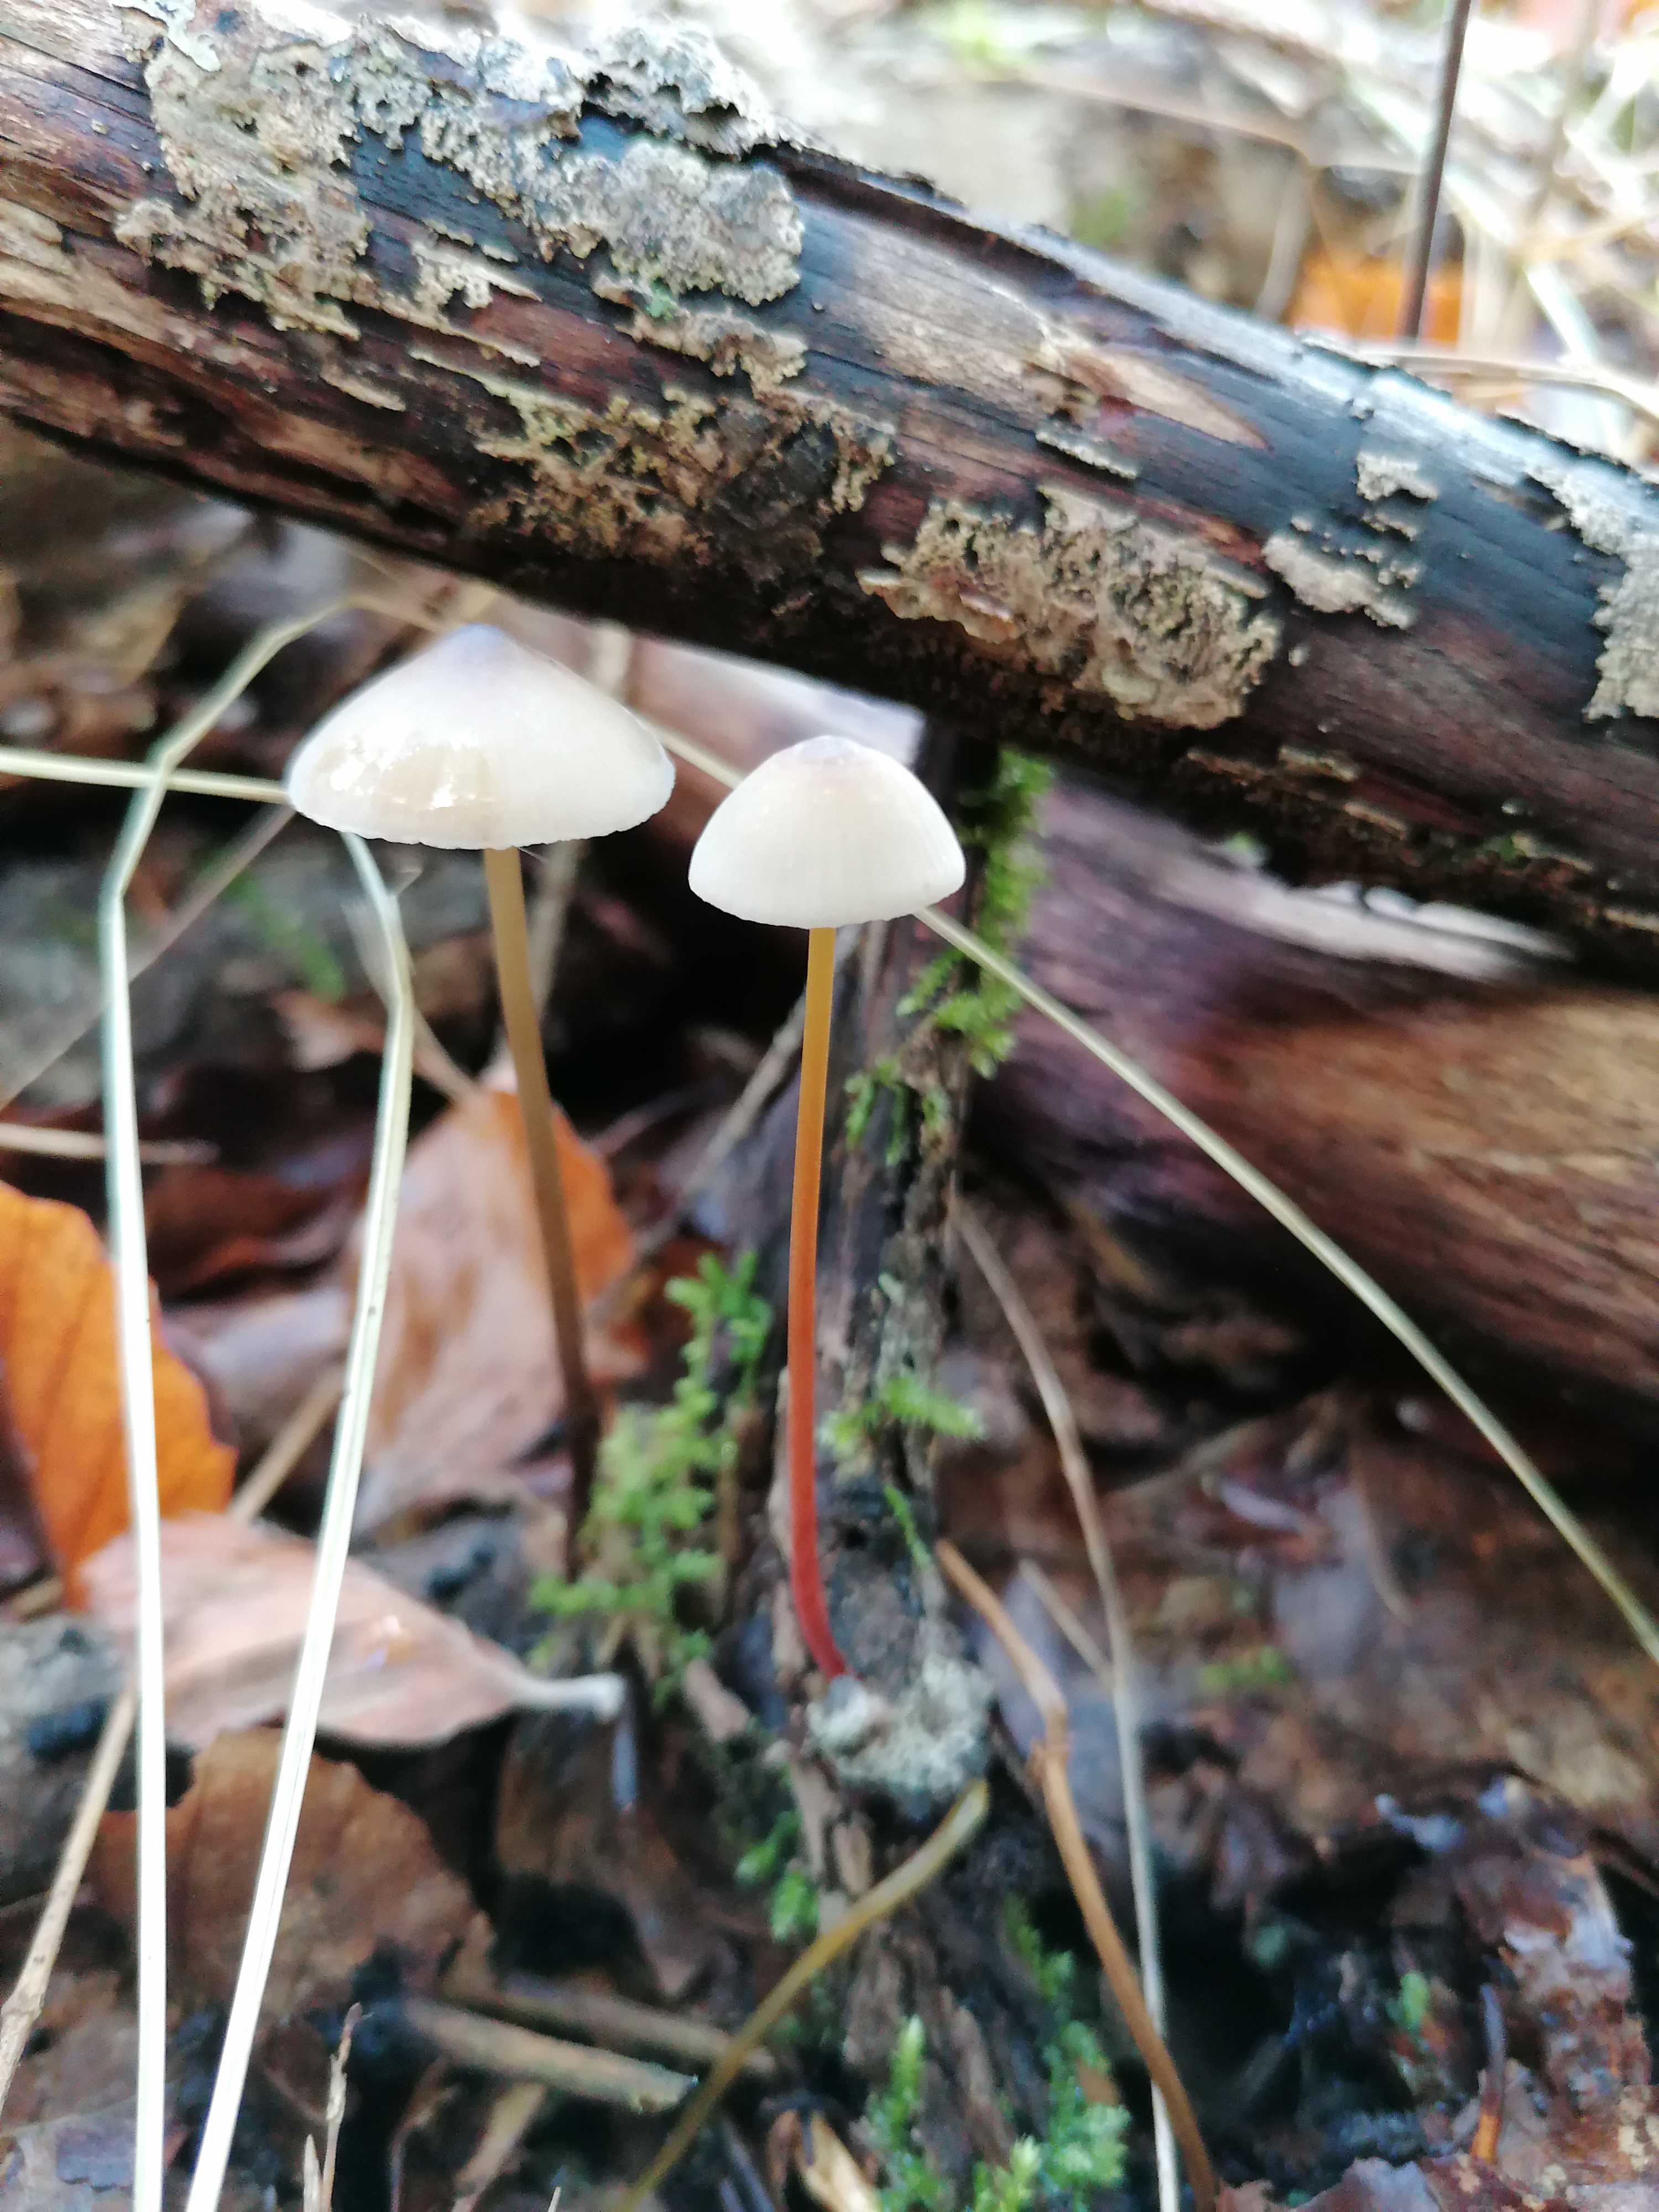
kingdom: Fungi
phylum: Basidiomycota
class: Agaricomycetes
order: Agaricales
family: Mycenaceae
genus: Mycena
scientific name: Mycena crocata
